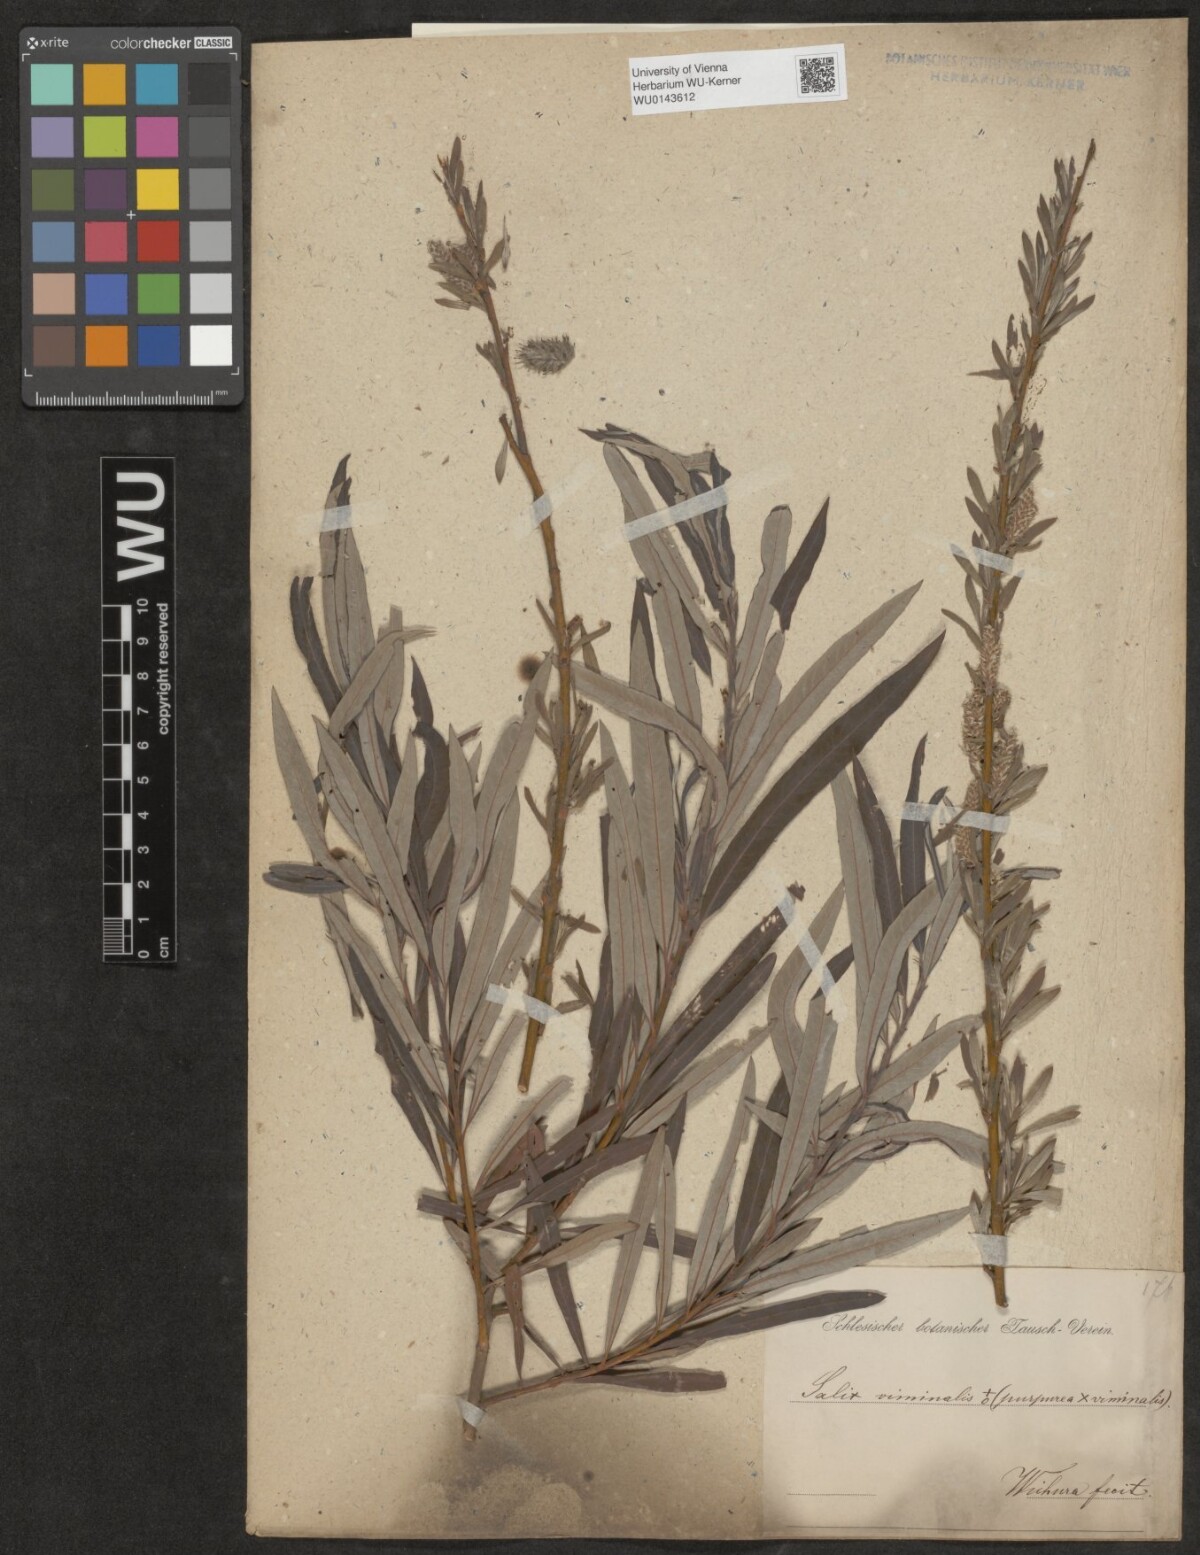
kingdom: Plantae
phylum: Tracheophyta
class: Magnoliopsida
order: Malpighiales
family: Salicaceae
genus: Salix
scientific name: Salix
